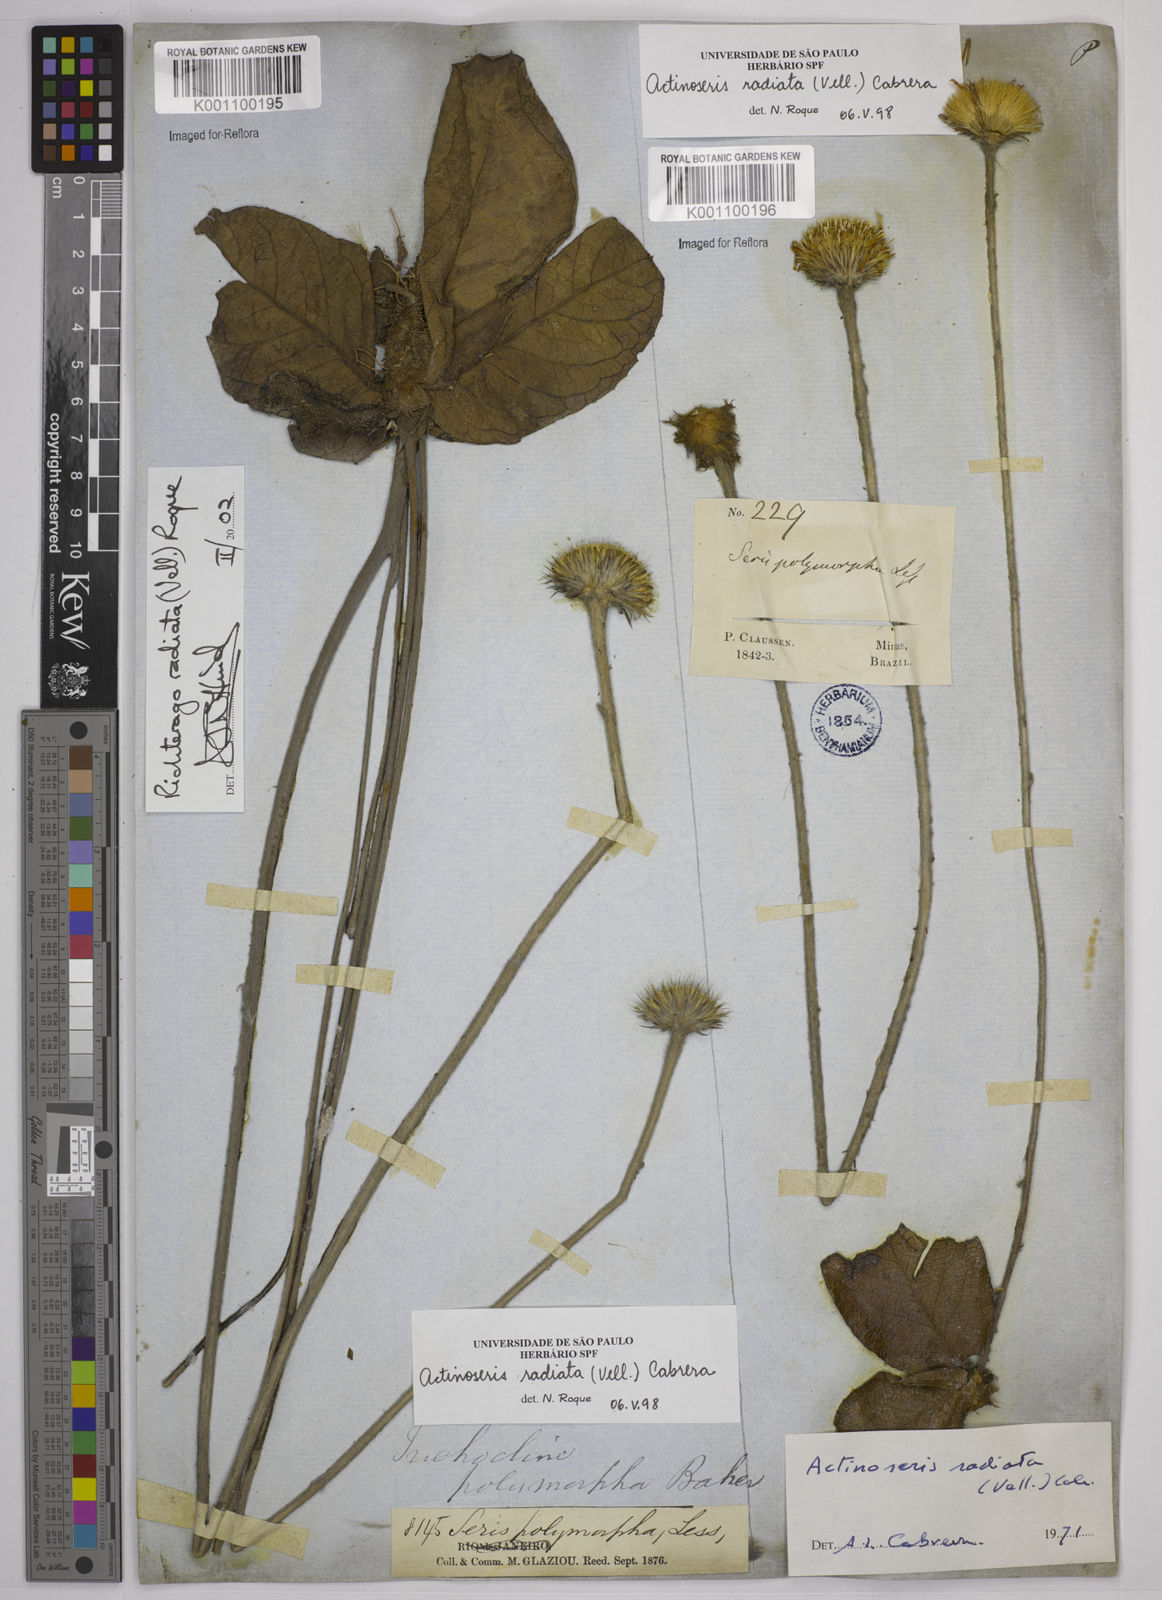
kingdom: Plantae
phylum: Tracheophyta
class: Magnoliopsida
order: Asterales
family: Asteraceae
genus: Richterago
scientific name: Richterago radiata
